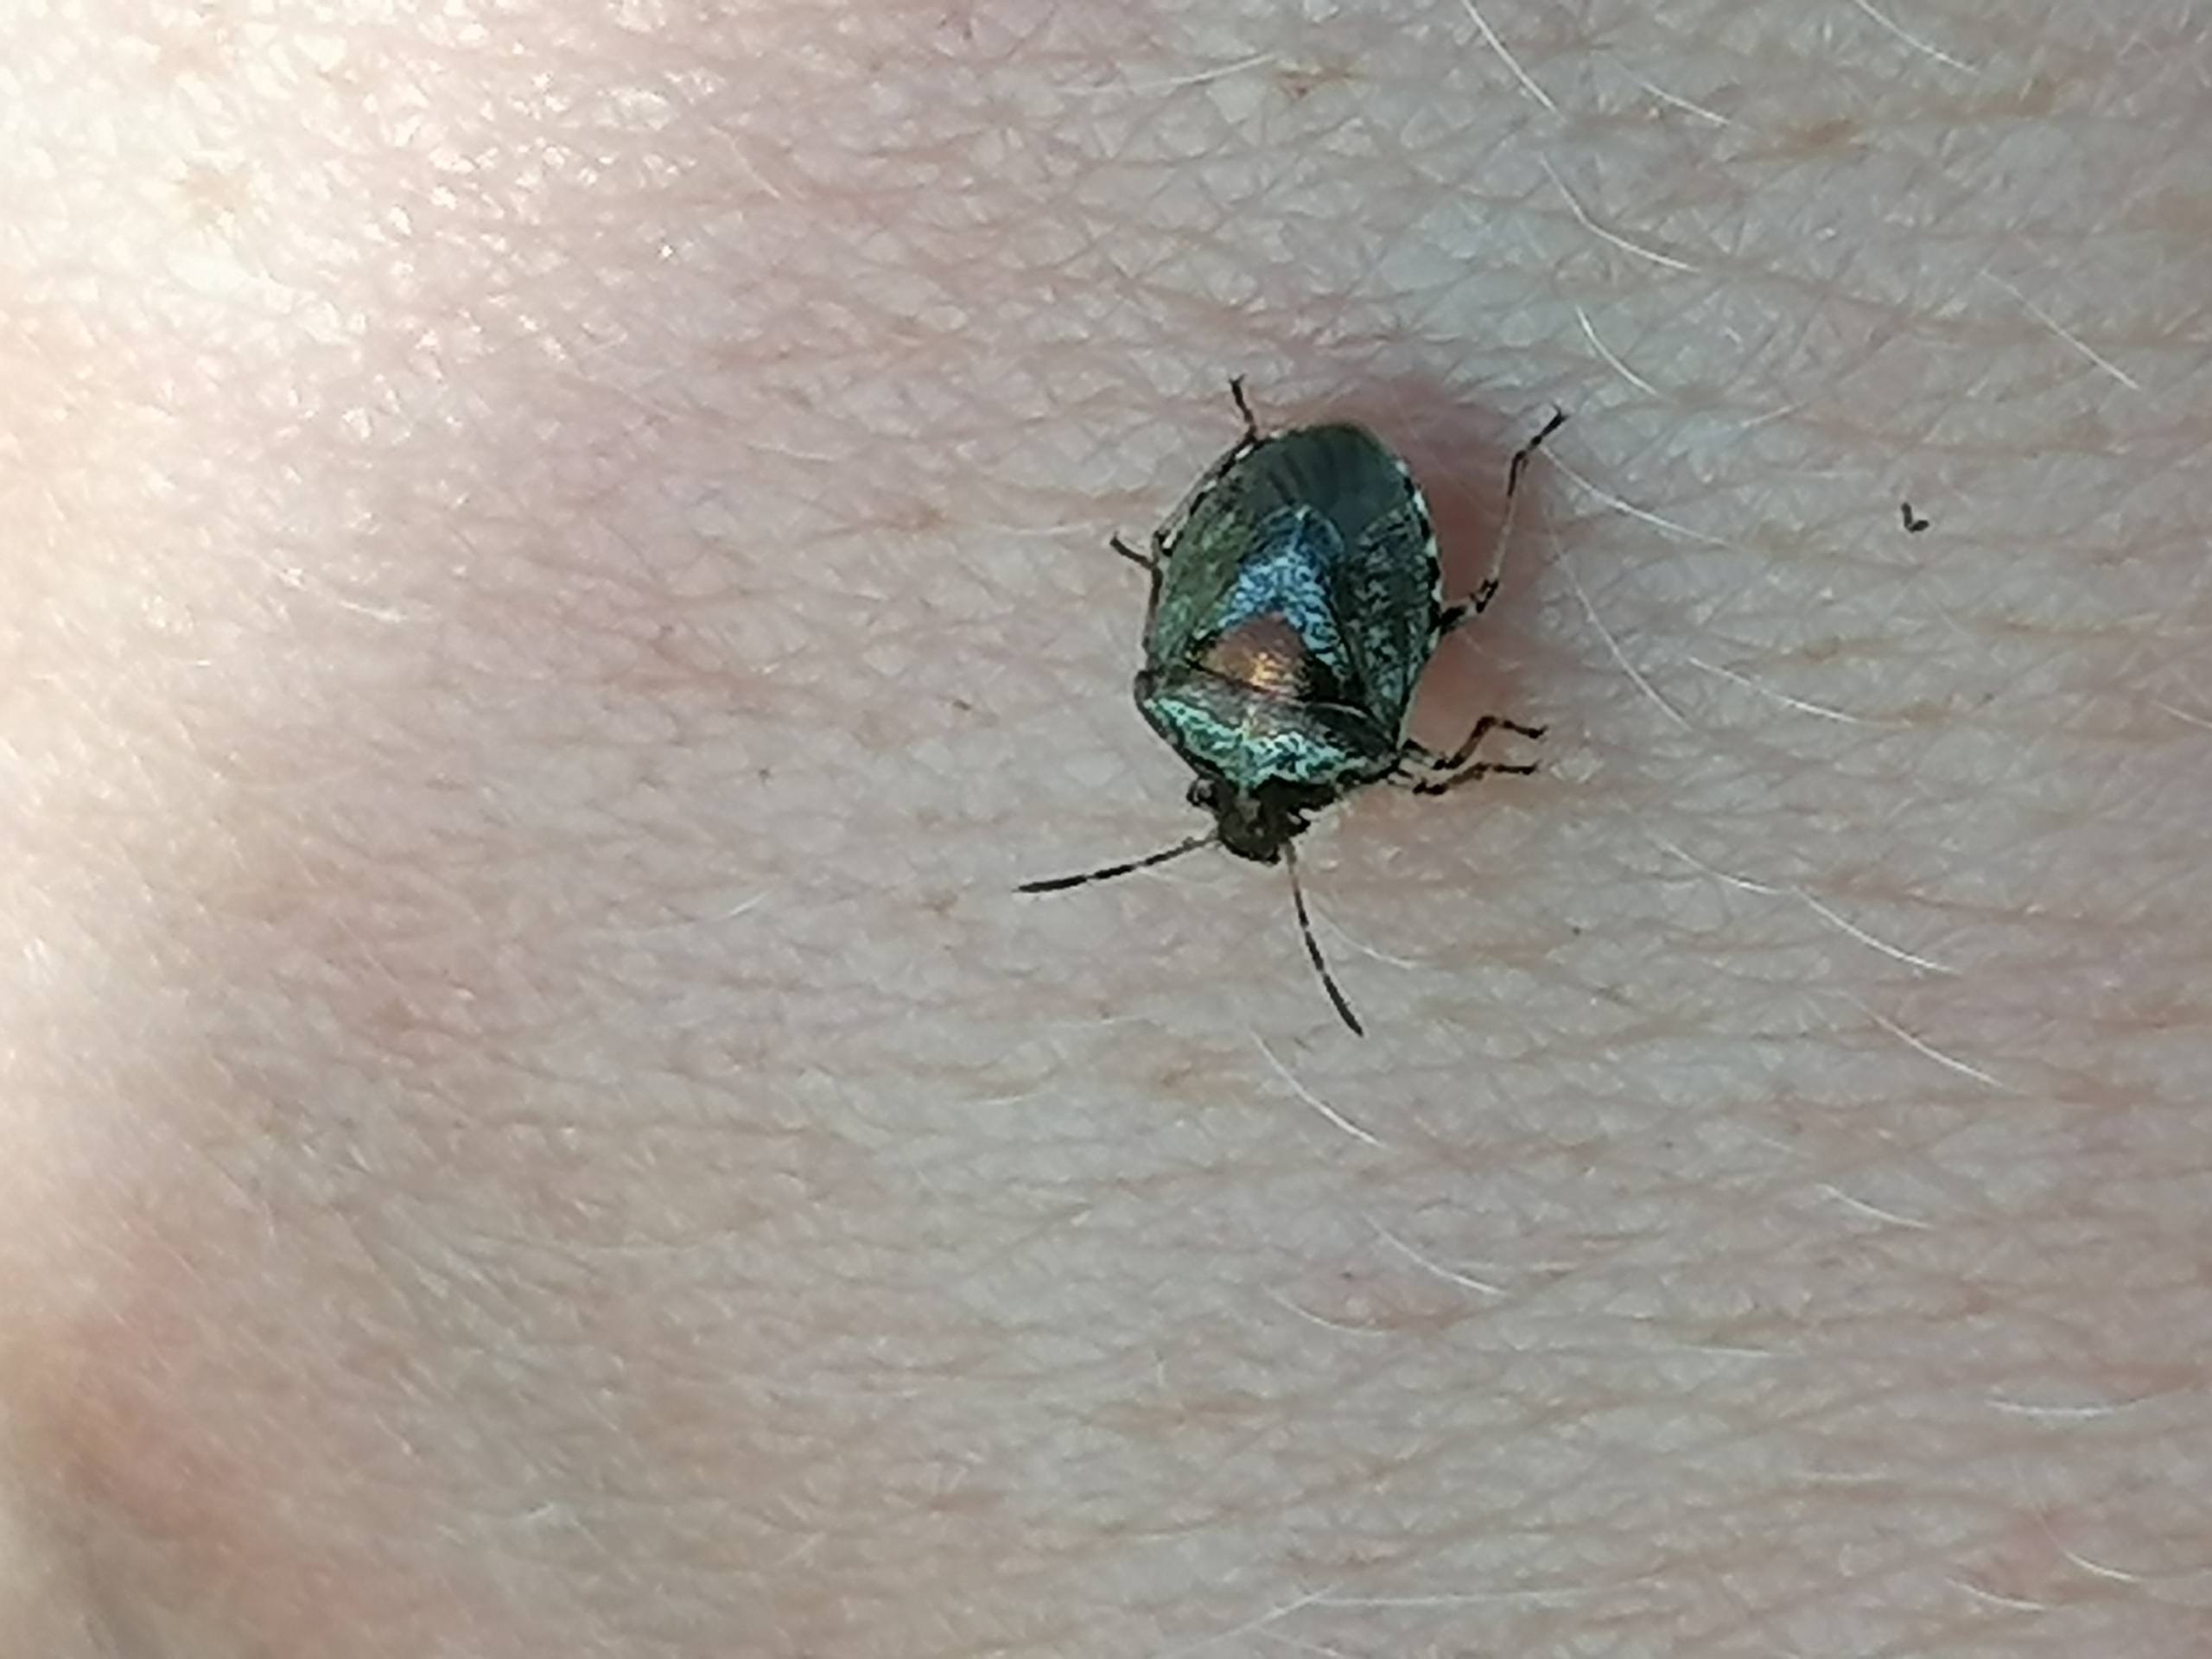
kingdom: Animalia
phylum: Arthropoda
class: Insecta
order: Hemiptera
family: Pentatomidae
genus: Eysarcoris
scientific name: Eysarcoris venustissimus
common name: Gylden urtetæge
